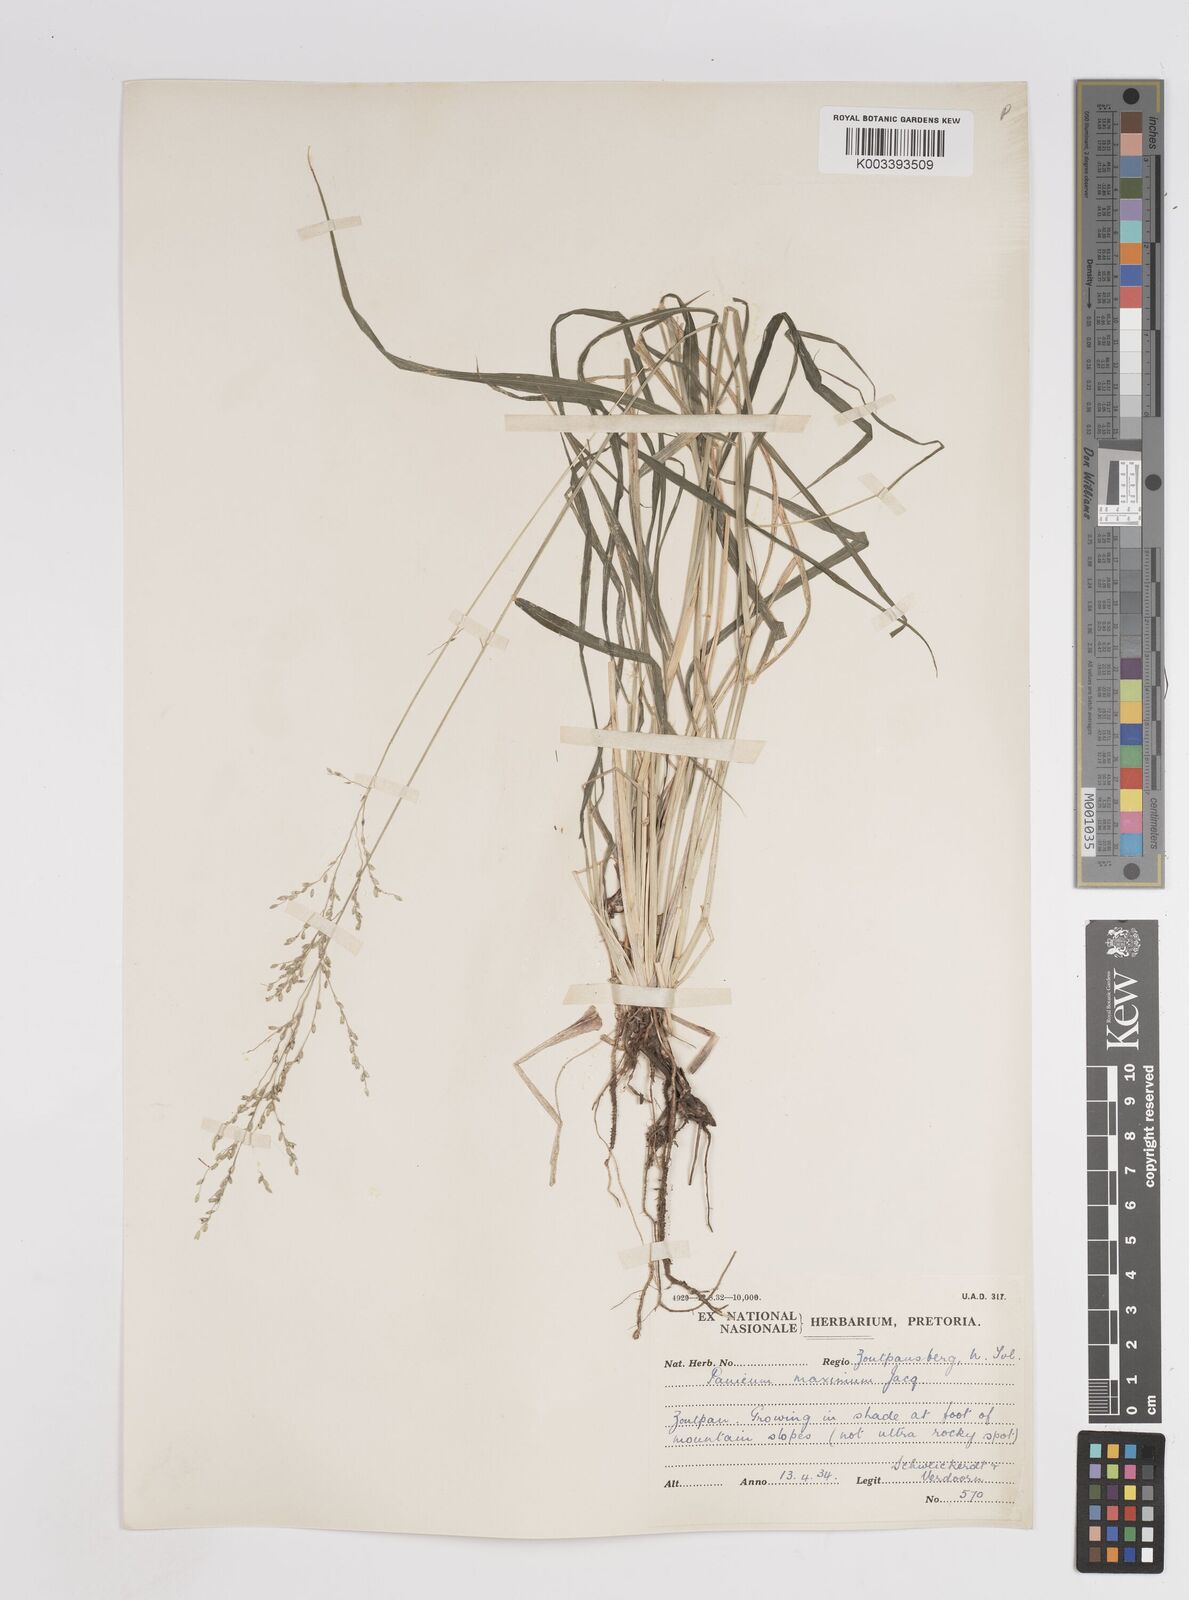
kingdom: Plantae
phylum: Tracheophyta
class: Liliopsida
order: Poales
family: Poaceae
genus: Megathyrsus
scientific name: Megathyrsus maximus
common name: Guineagrass
